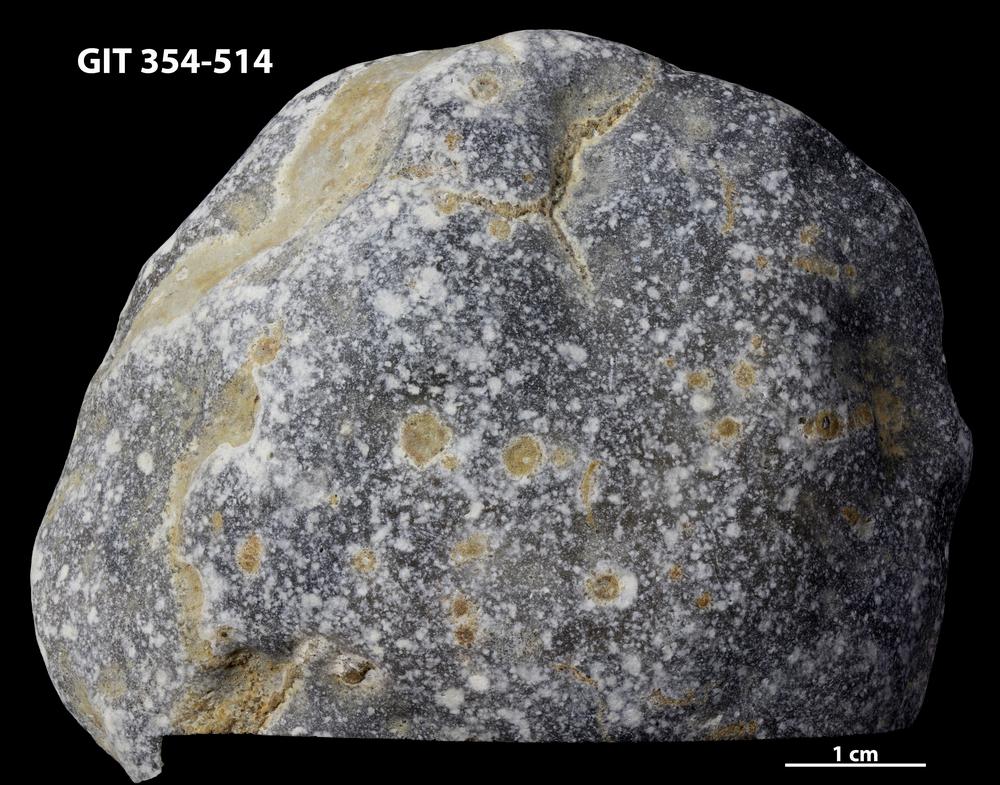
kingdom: Animalia
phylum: Porifera
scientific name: Porifera
